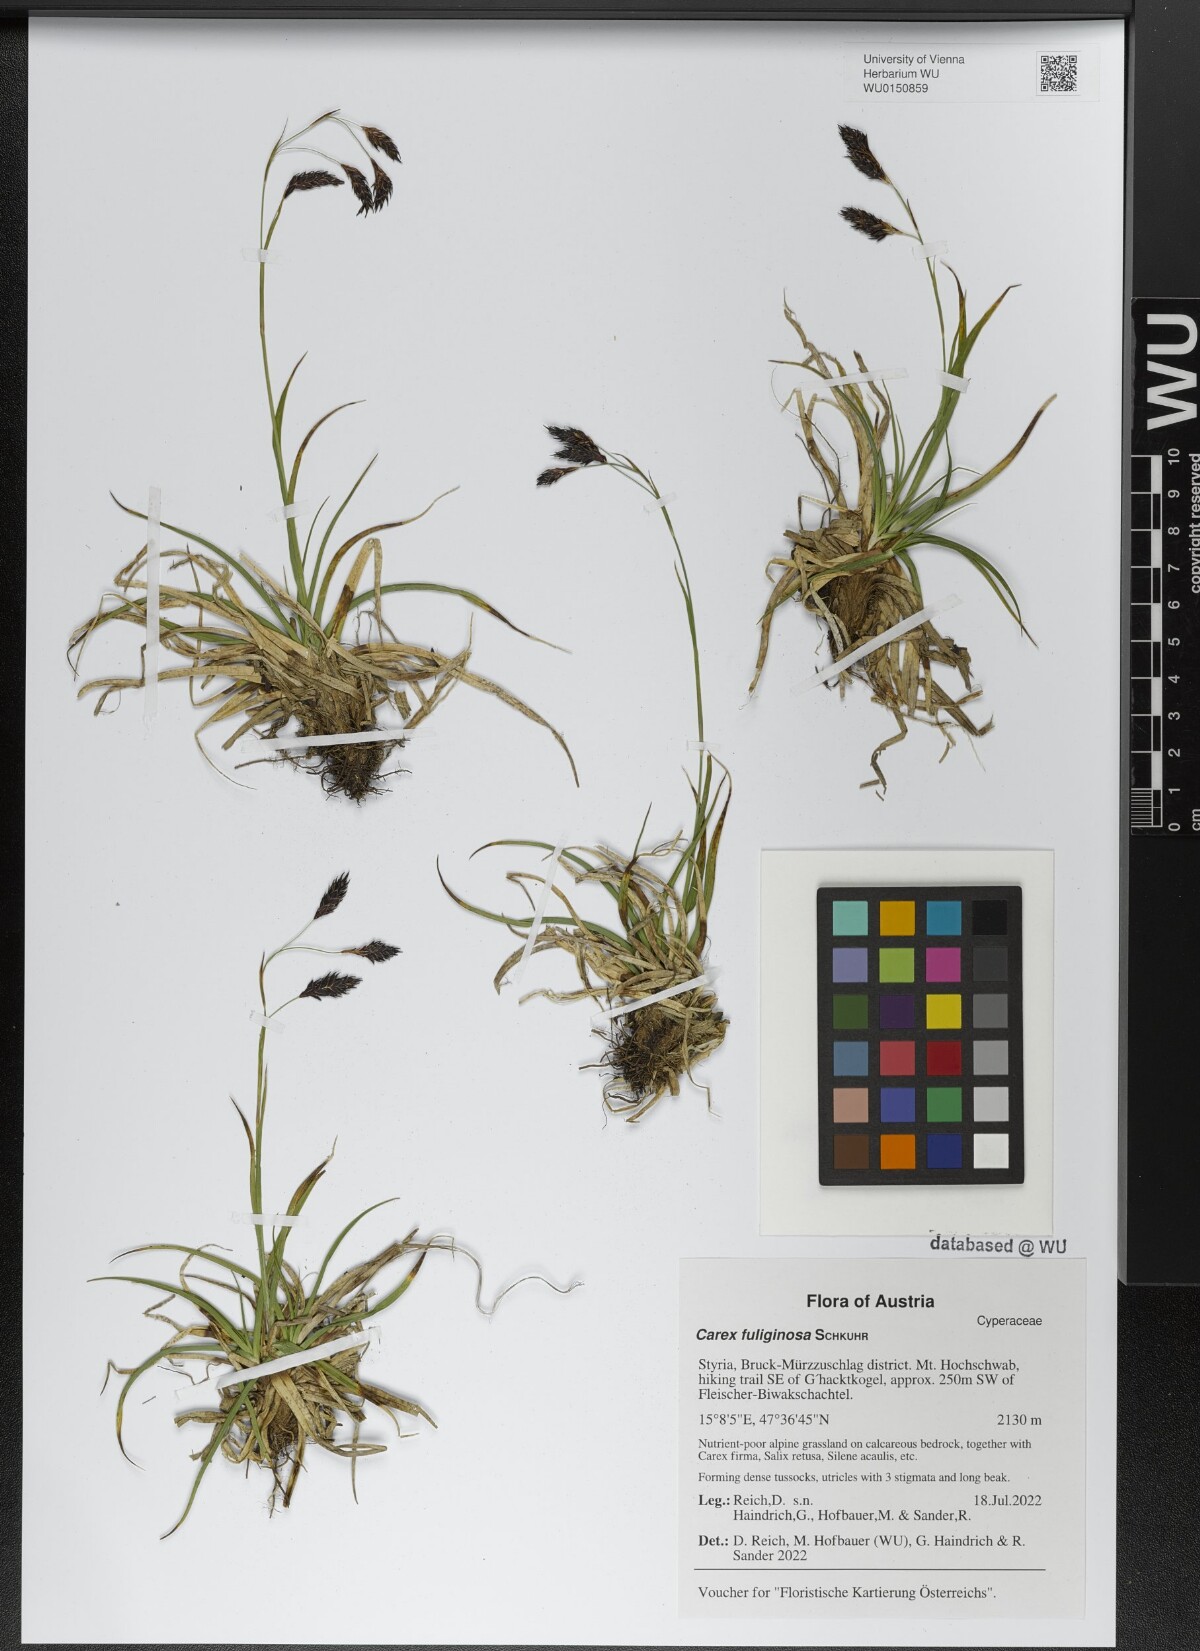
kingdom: Plantae
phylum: Tracheophyta
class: Liliopsida
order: Poales
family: Cyperaceae
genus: Carex
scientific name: Carex fuliginosa
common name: Few-flowered sedge
